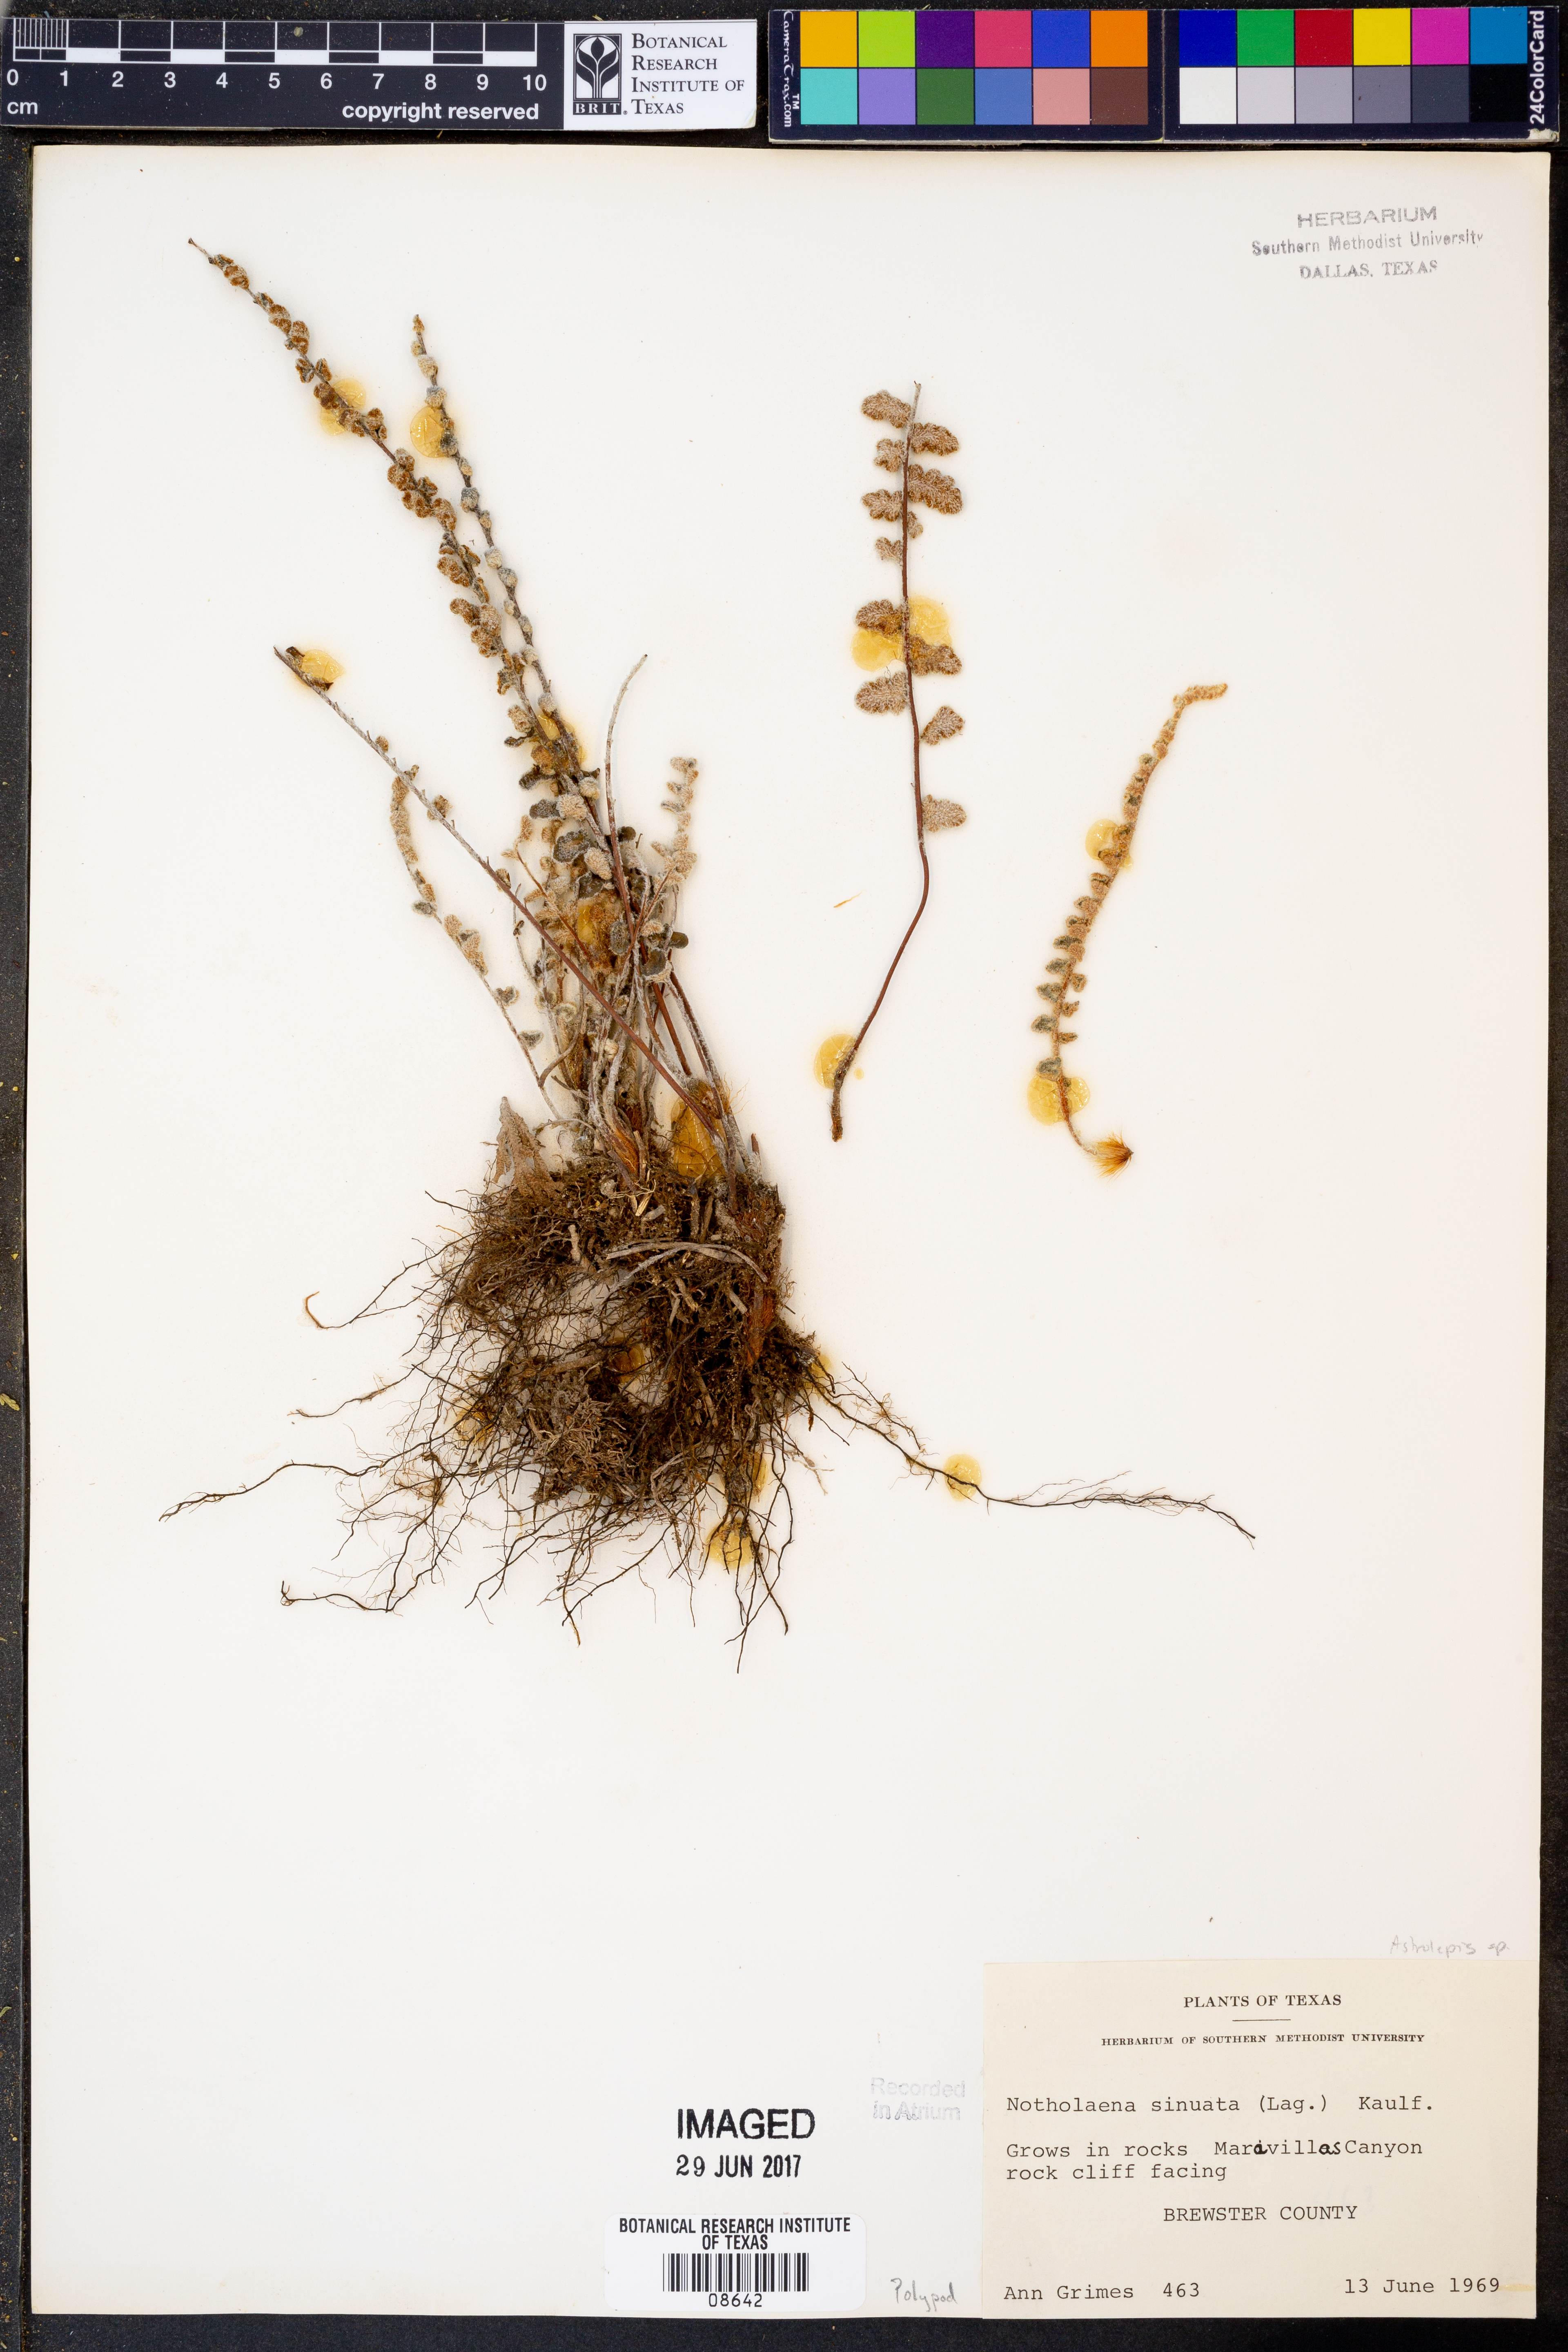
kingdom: Plantae
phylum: Tracheophyta
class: Polypodiopsida
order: Polypodiales
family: Pteridaceae
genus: Astrolepis
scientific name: Astrolepis sinuata
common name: Wavy scaly cloakfern
